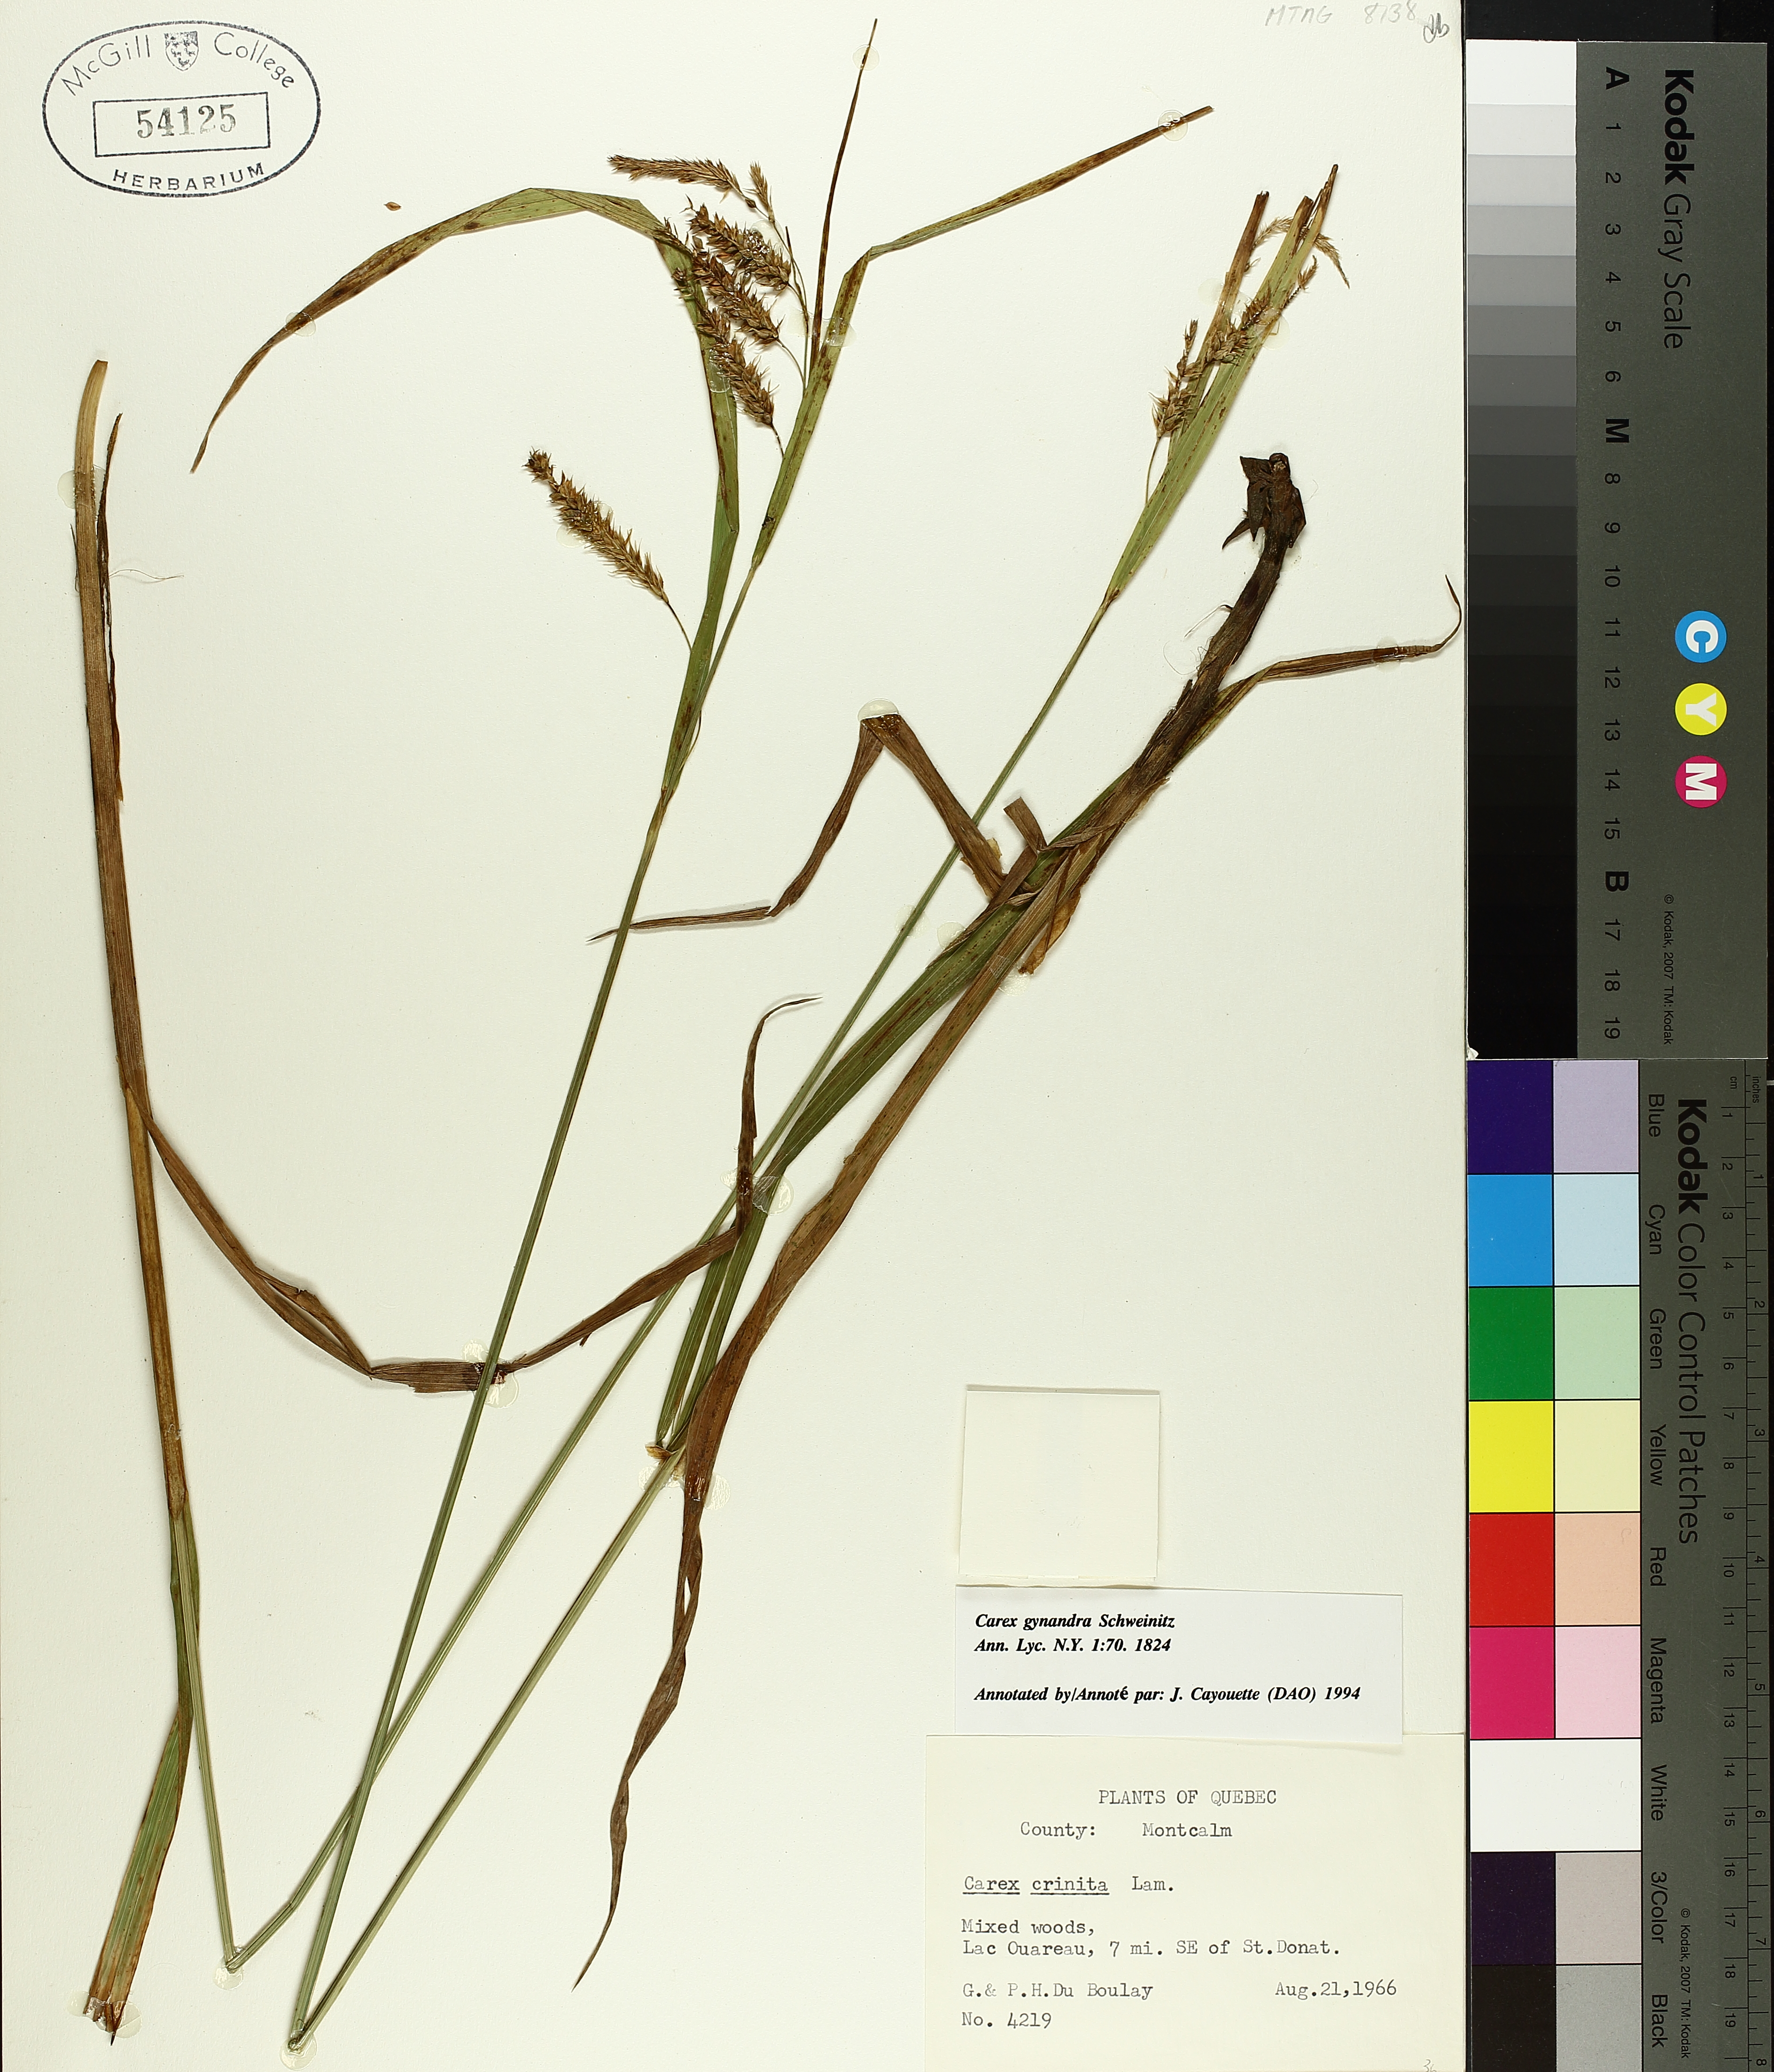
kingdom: Plantae
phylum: Tracheophyta
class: Liliopsida
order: Poales
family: Cyperaceae
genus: Carex
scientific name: Carex gynandra
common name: Nodding sedge
